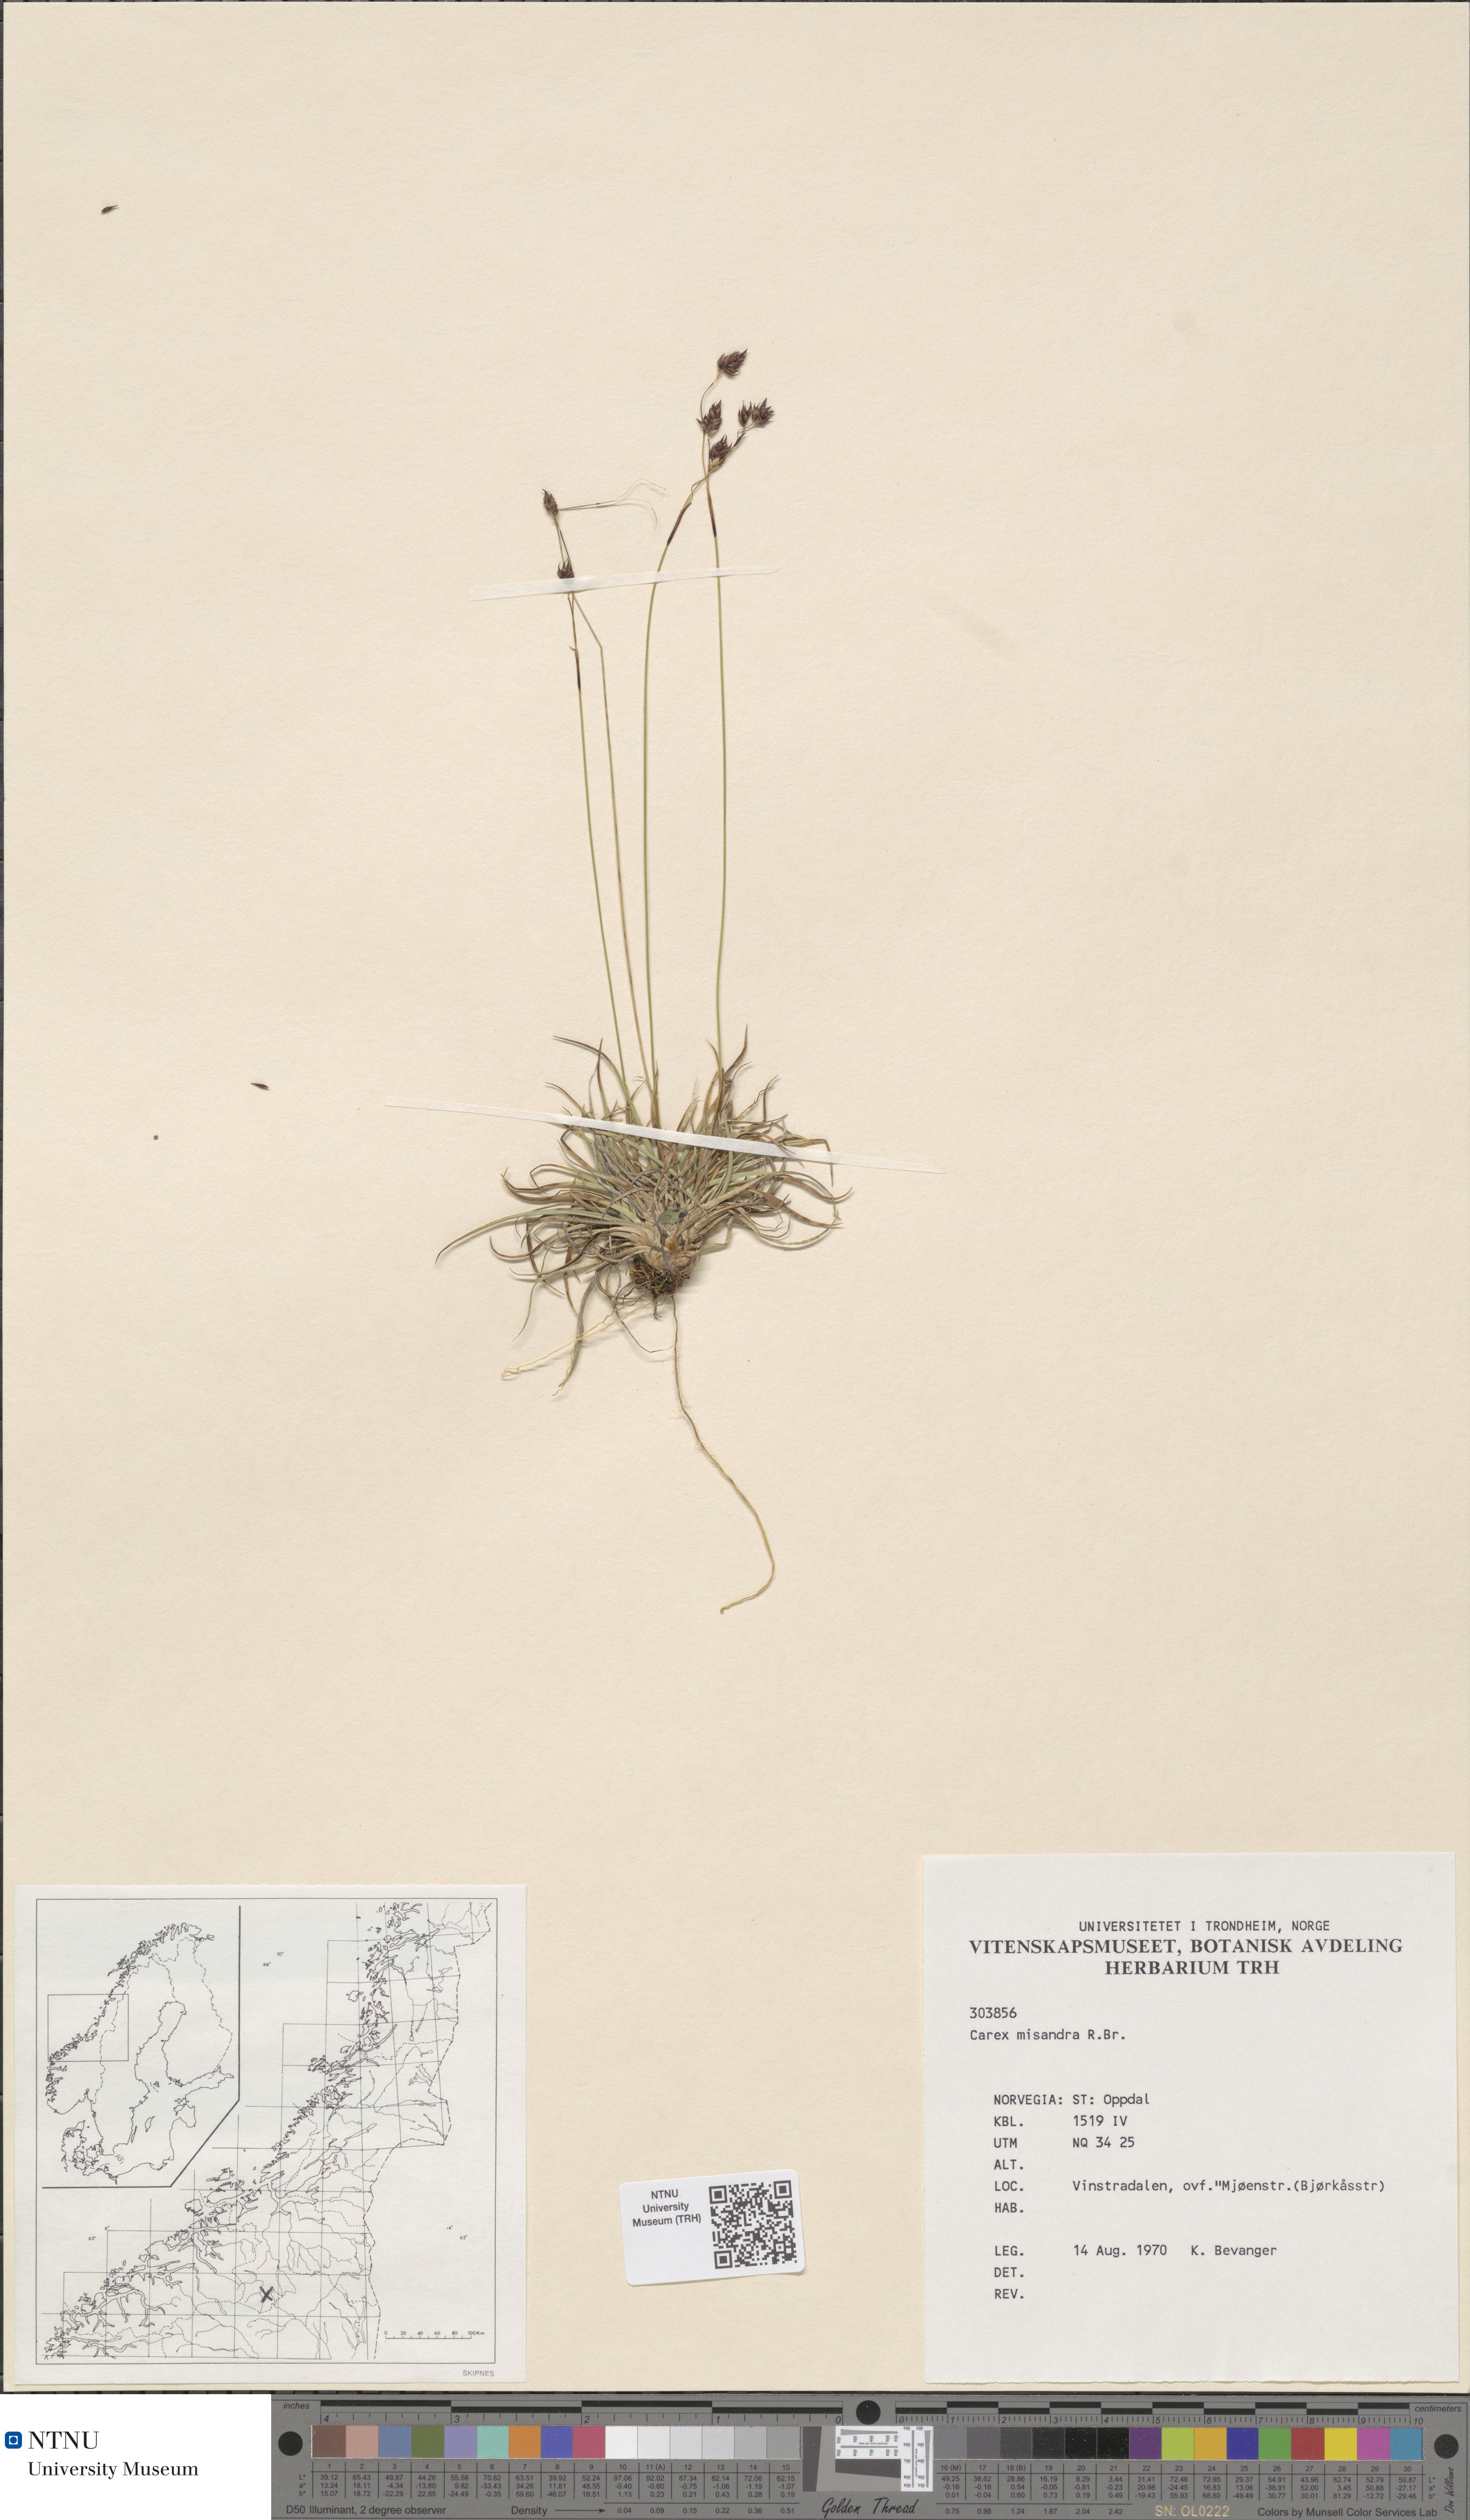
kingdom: Plantae
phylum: Tracheophyta
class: Liliopsida
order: Poales
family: Cyperaceae
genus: Carex
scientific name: Carex fuliginosa
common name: Few-flowered sedge
